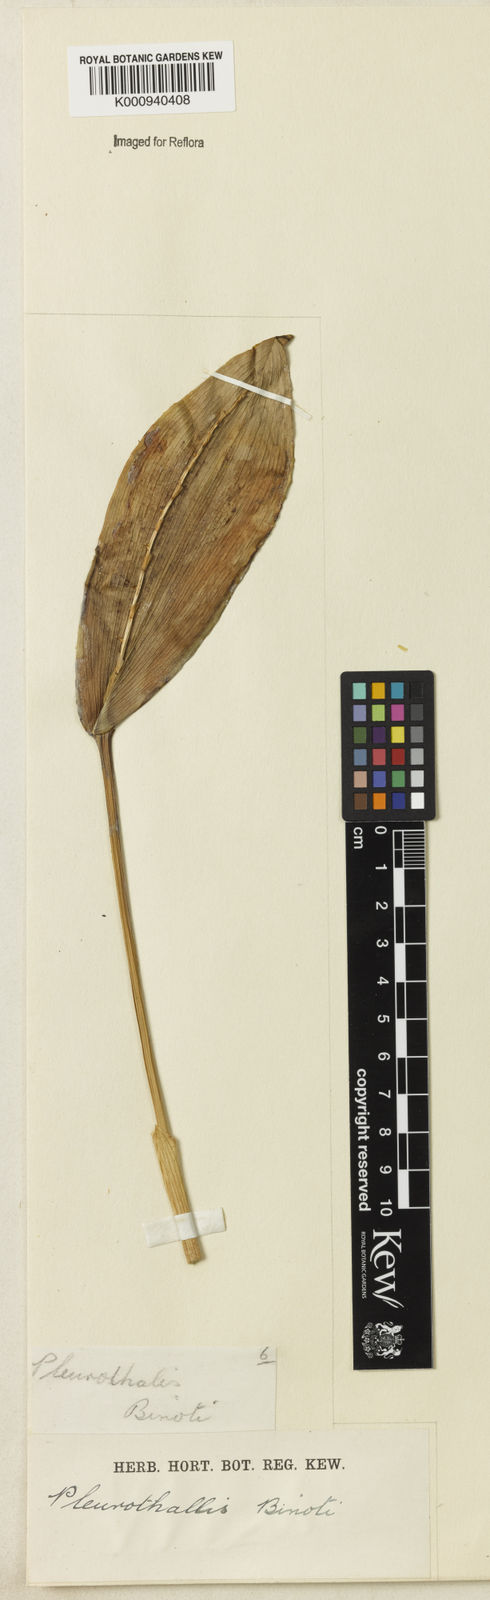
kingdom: Plantae
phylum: Tracheophyta
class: Liliopsida
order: Asparagales
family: Orchidaceae
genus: Acianthera
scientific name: Acianthera binotii
